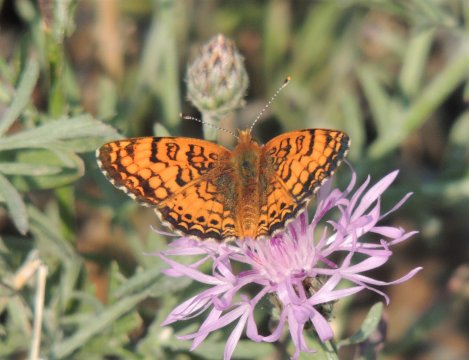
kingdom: Animalia
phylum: Arthropoda
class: Insecta
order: Lepidoptera
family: Nymphalidae
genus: Eresia
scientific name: Eresia aveyrona
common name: Mylitta Crescent
